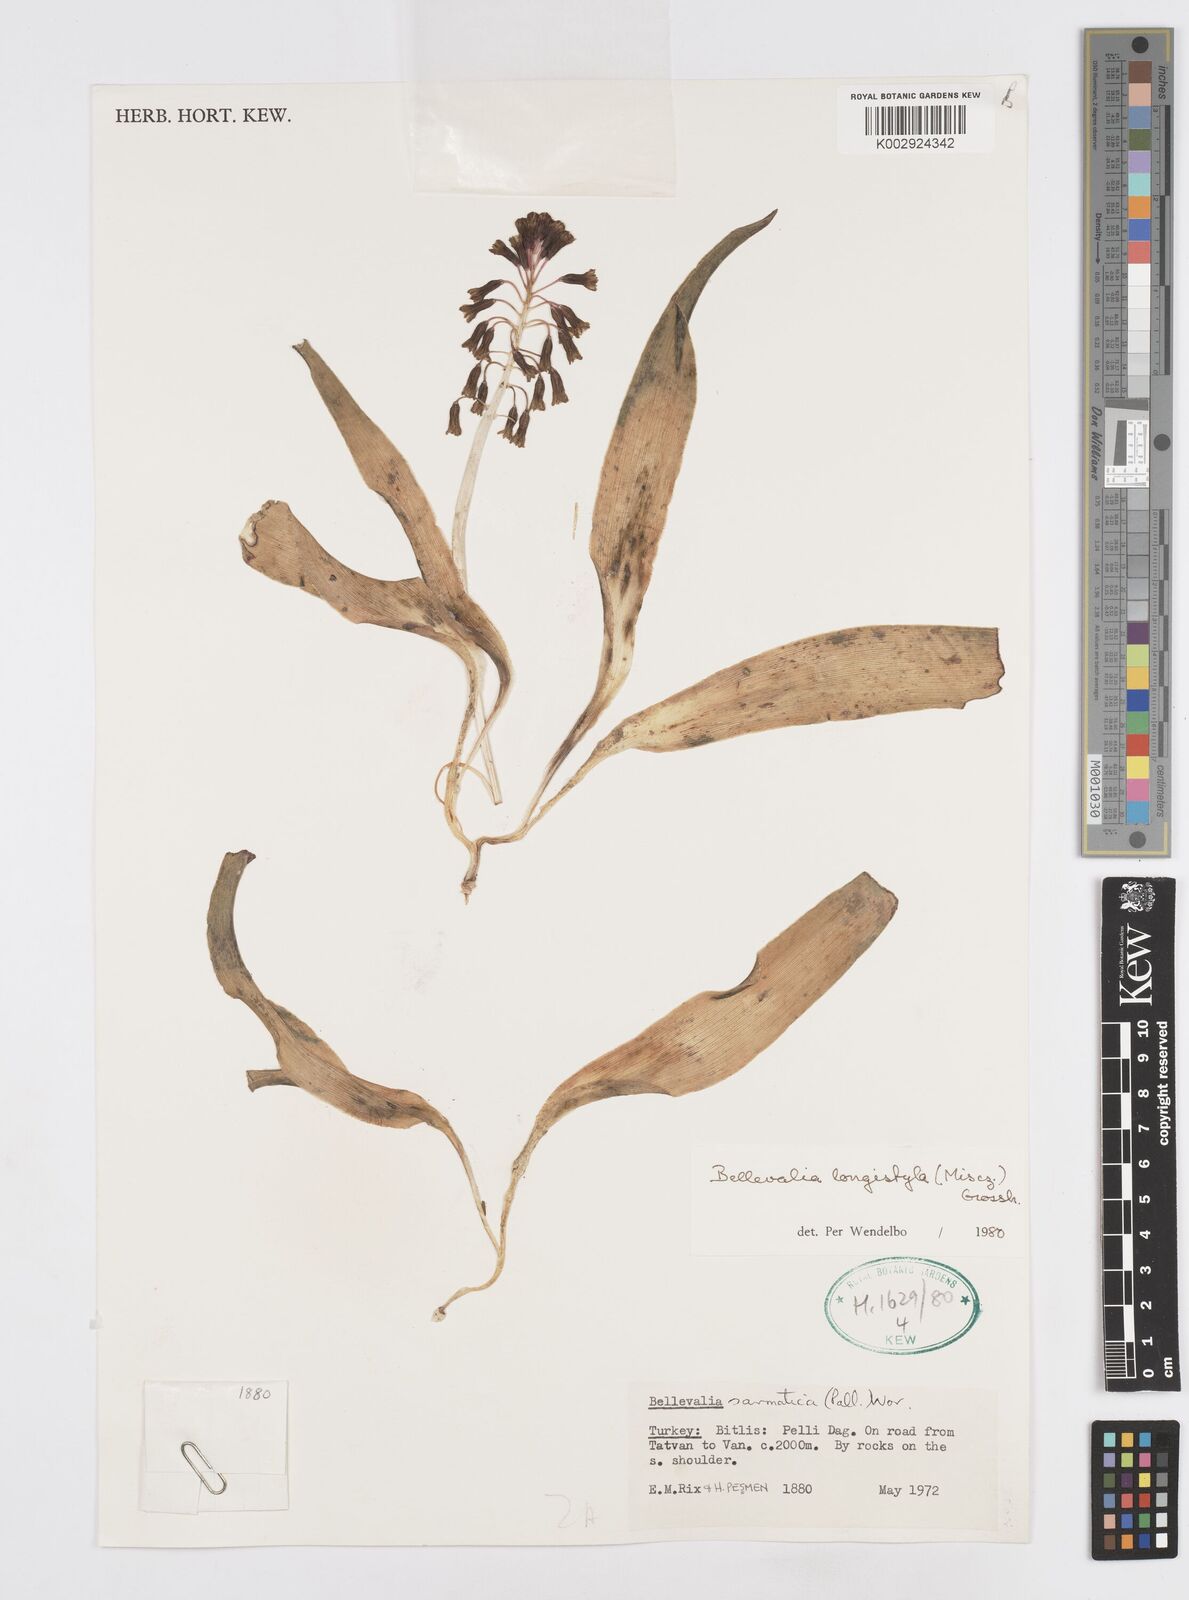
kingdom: Plantae
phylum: Tracheophyta
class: Liliopsida
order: Asparagales
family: Asparagaceae
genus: Bellevalia
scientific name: Bellevalia longistyla
